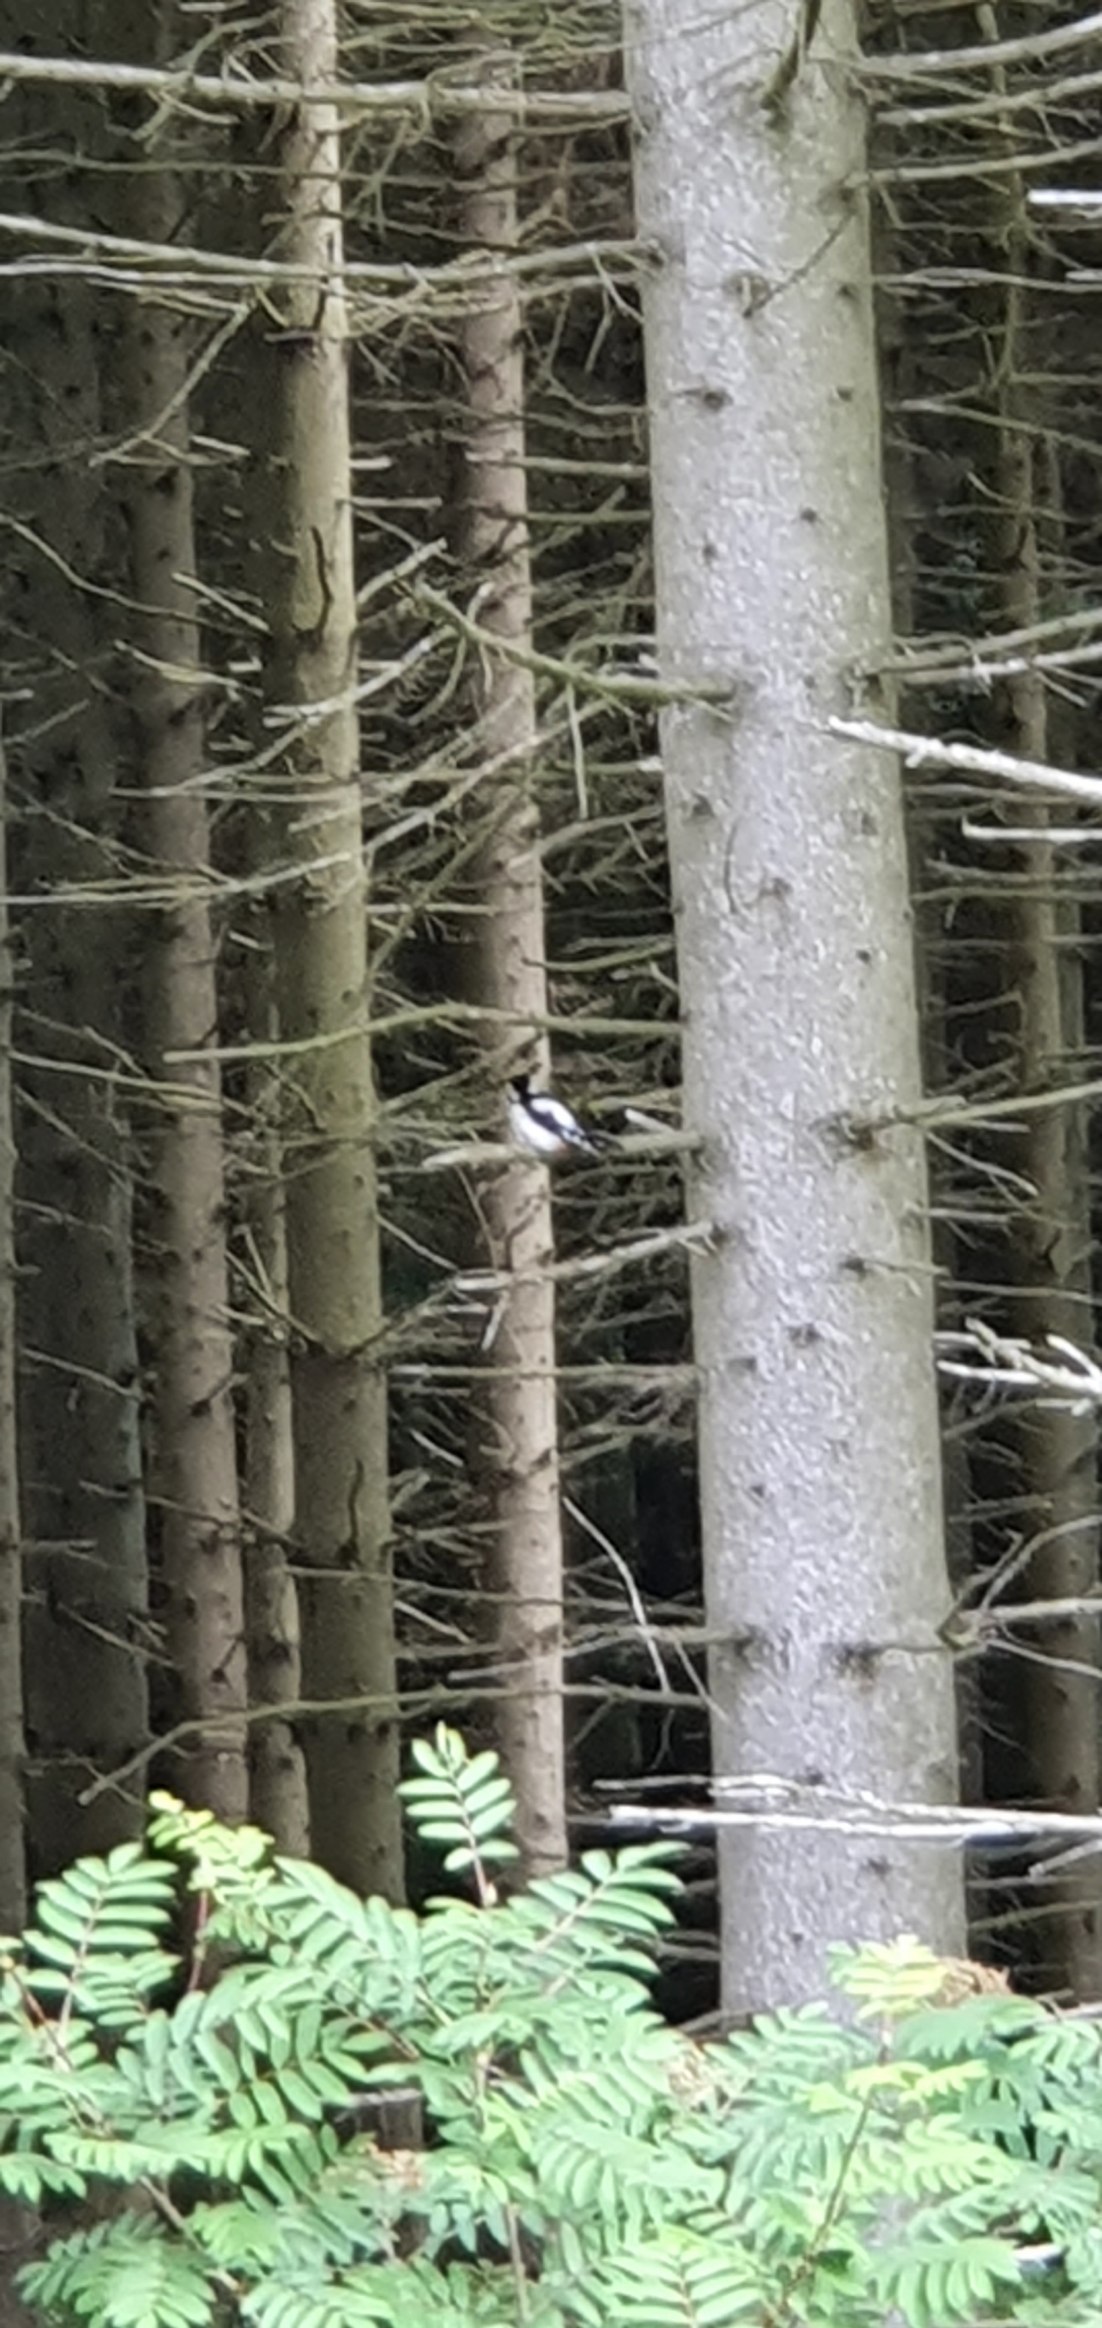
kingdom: Animalia
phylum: Chordata
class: Aves
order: Piciformes
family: Picidae
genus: Dendrocopos
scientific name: Dendrocopos major
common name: Stor flagspætte
